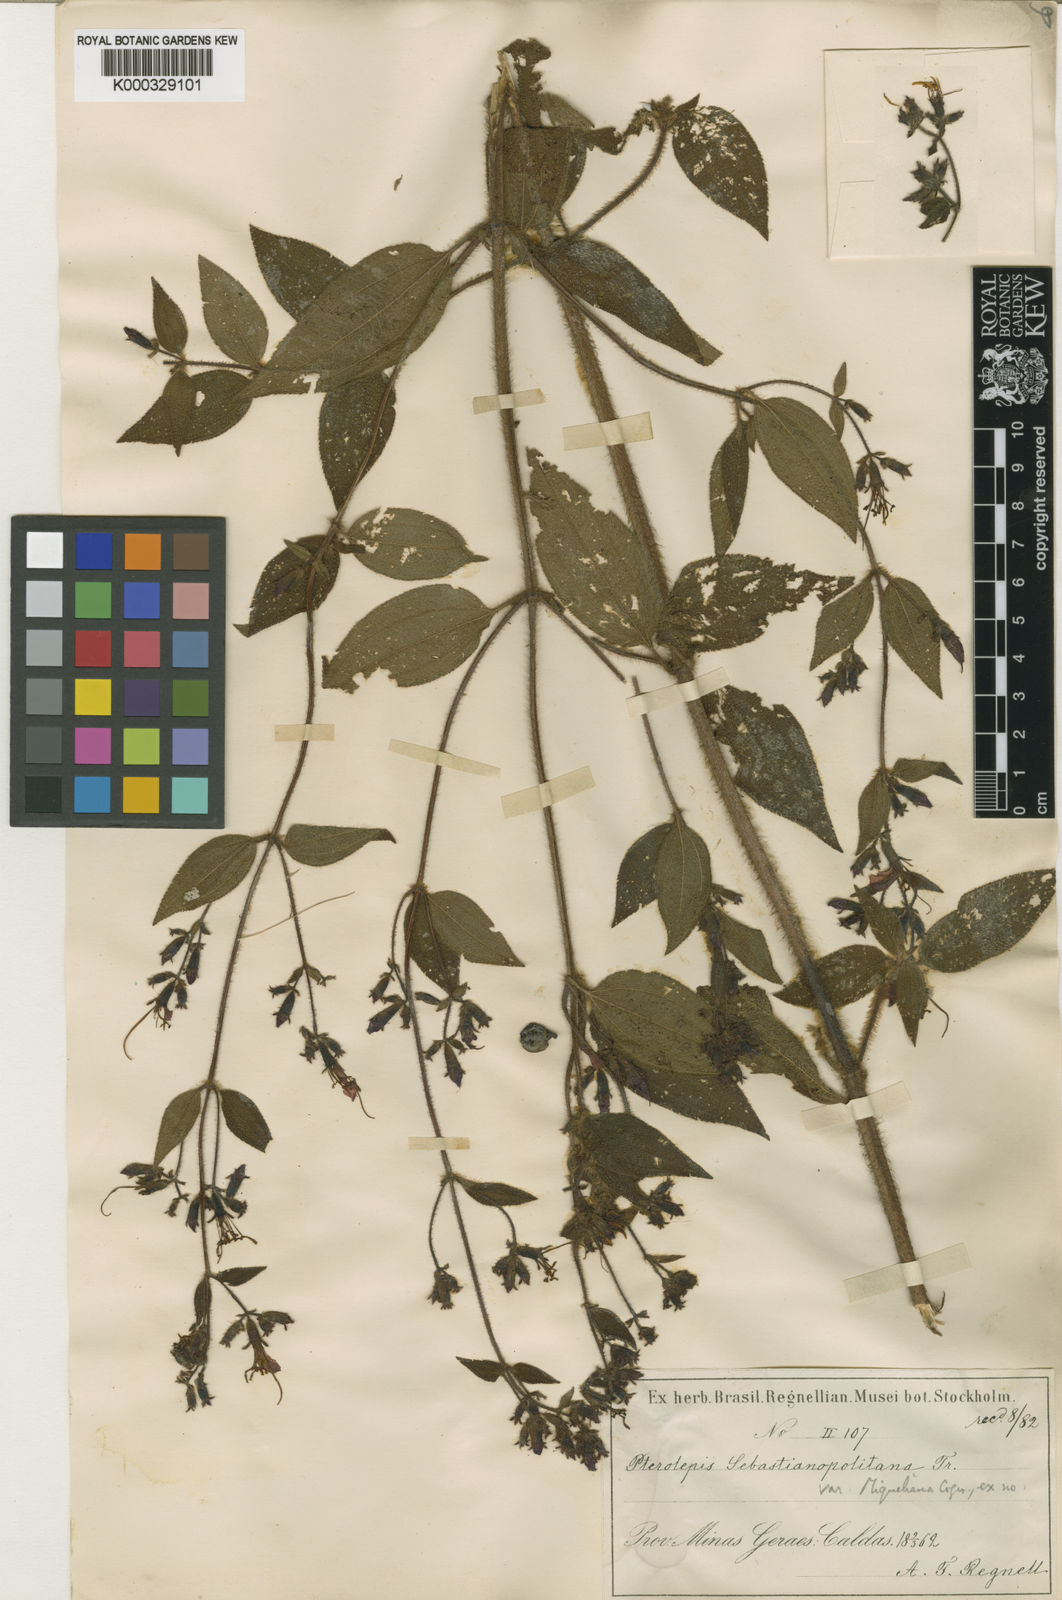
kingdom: Plantae
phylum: Tracheophyta
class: Magnoliopsida
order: Myrtales
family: Melastomataceae
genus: Chaetogastra
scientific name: Chaetogastra sebastianopolitana
